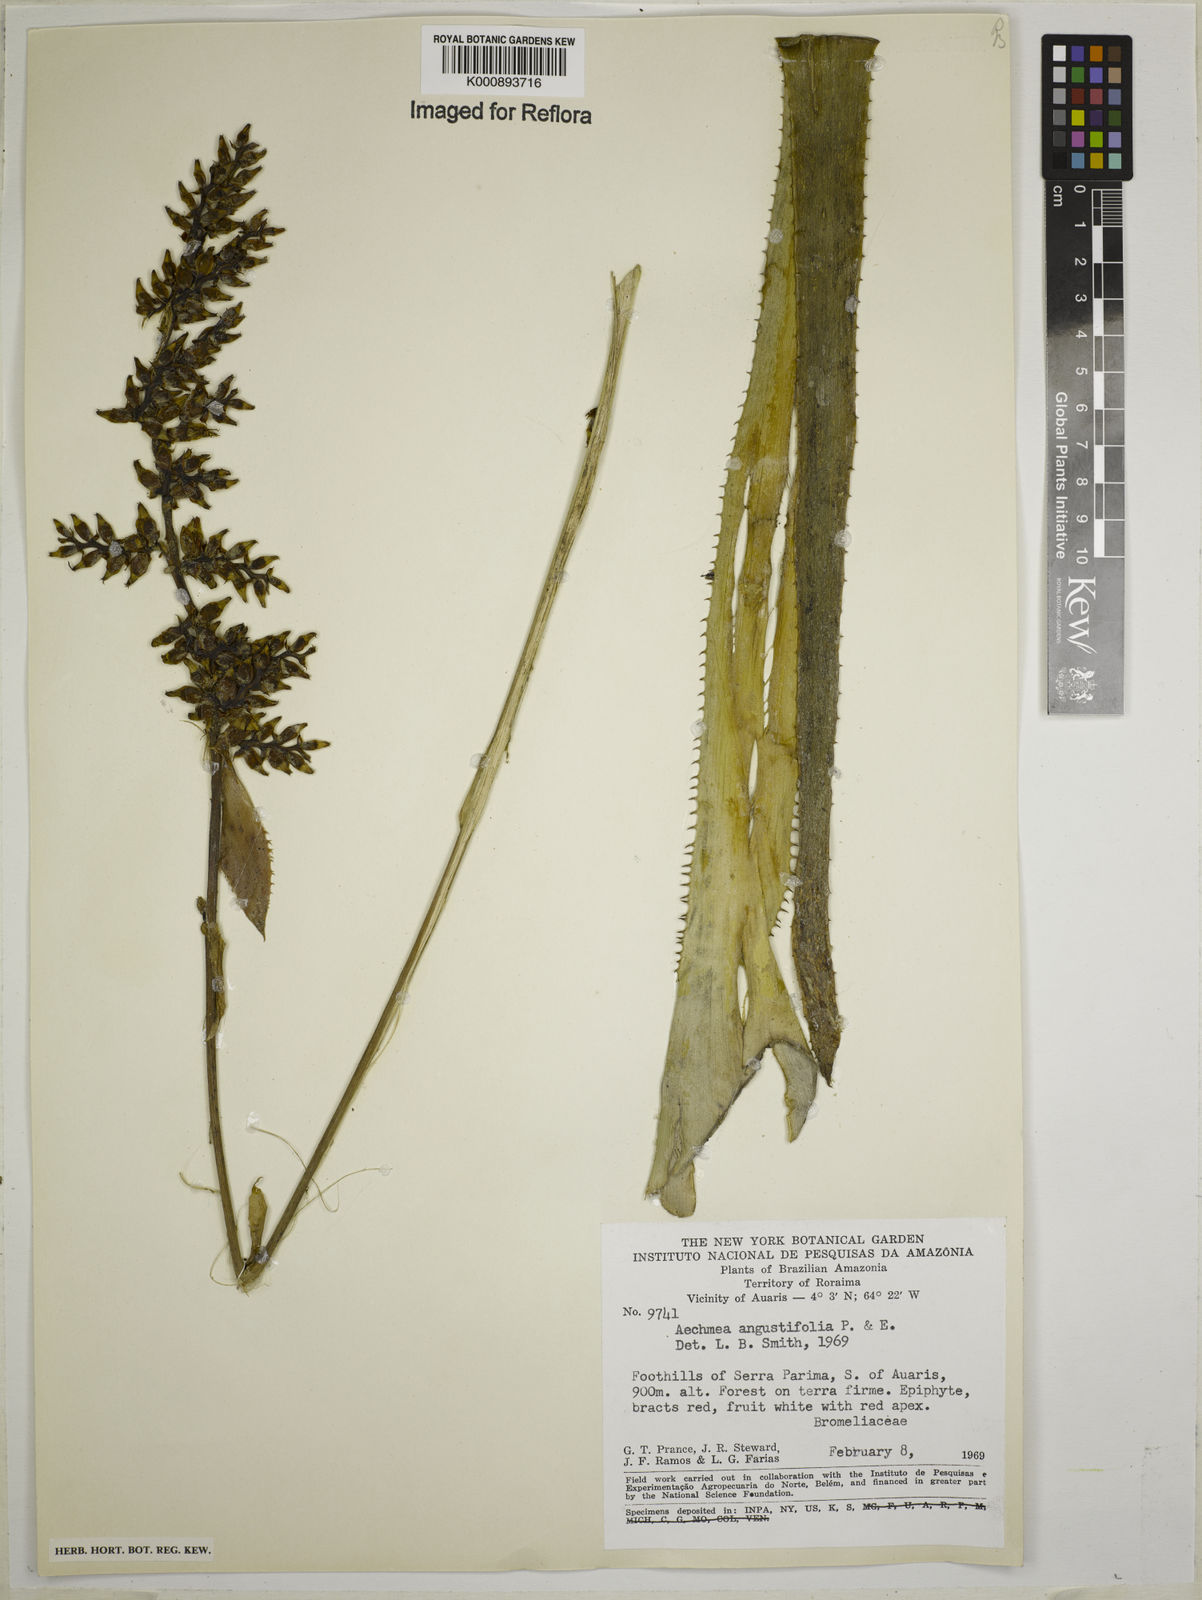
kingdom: Plantae
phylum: Tracheophyta
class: Liliopsida
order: Poales
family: Bromeliaceae
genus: Aechmea
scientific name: Aechmea angustifolia
